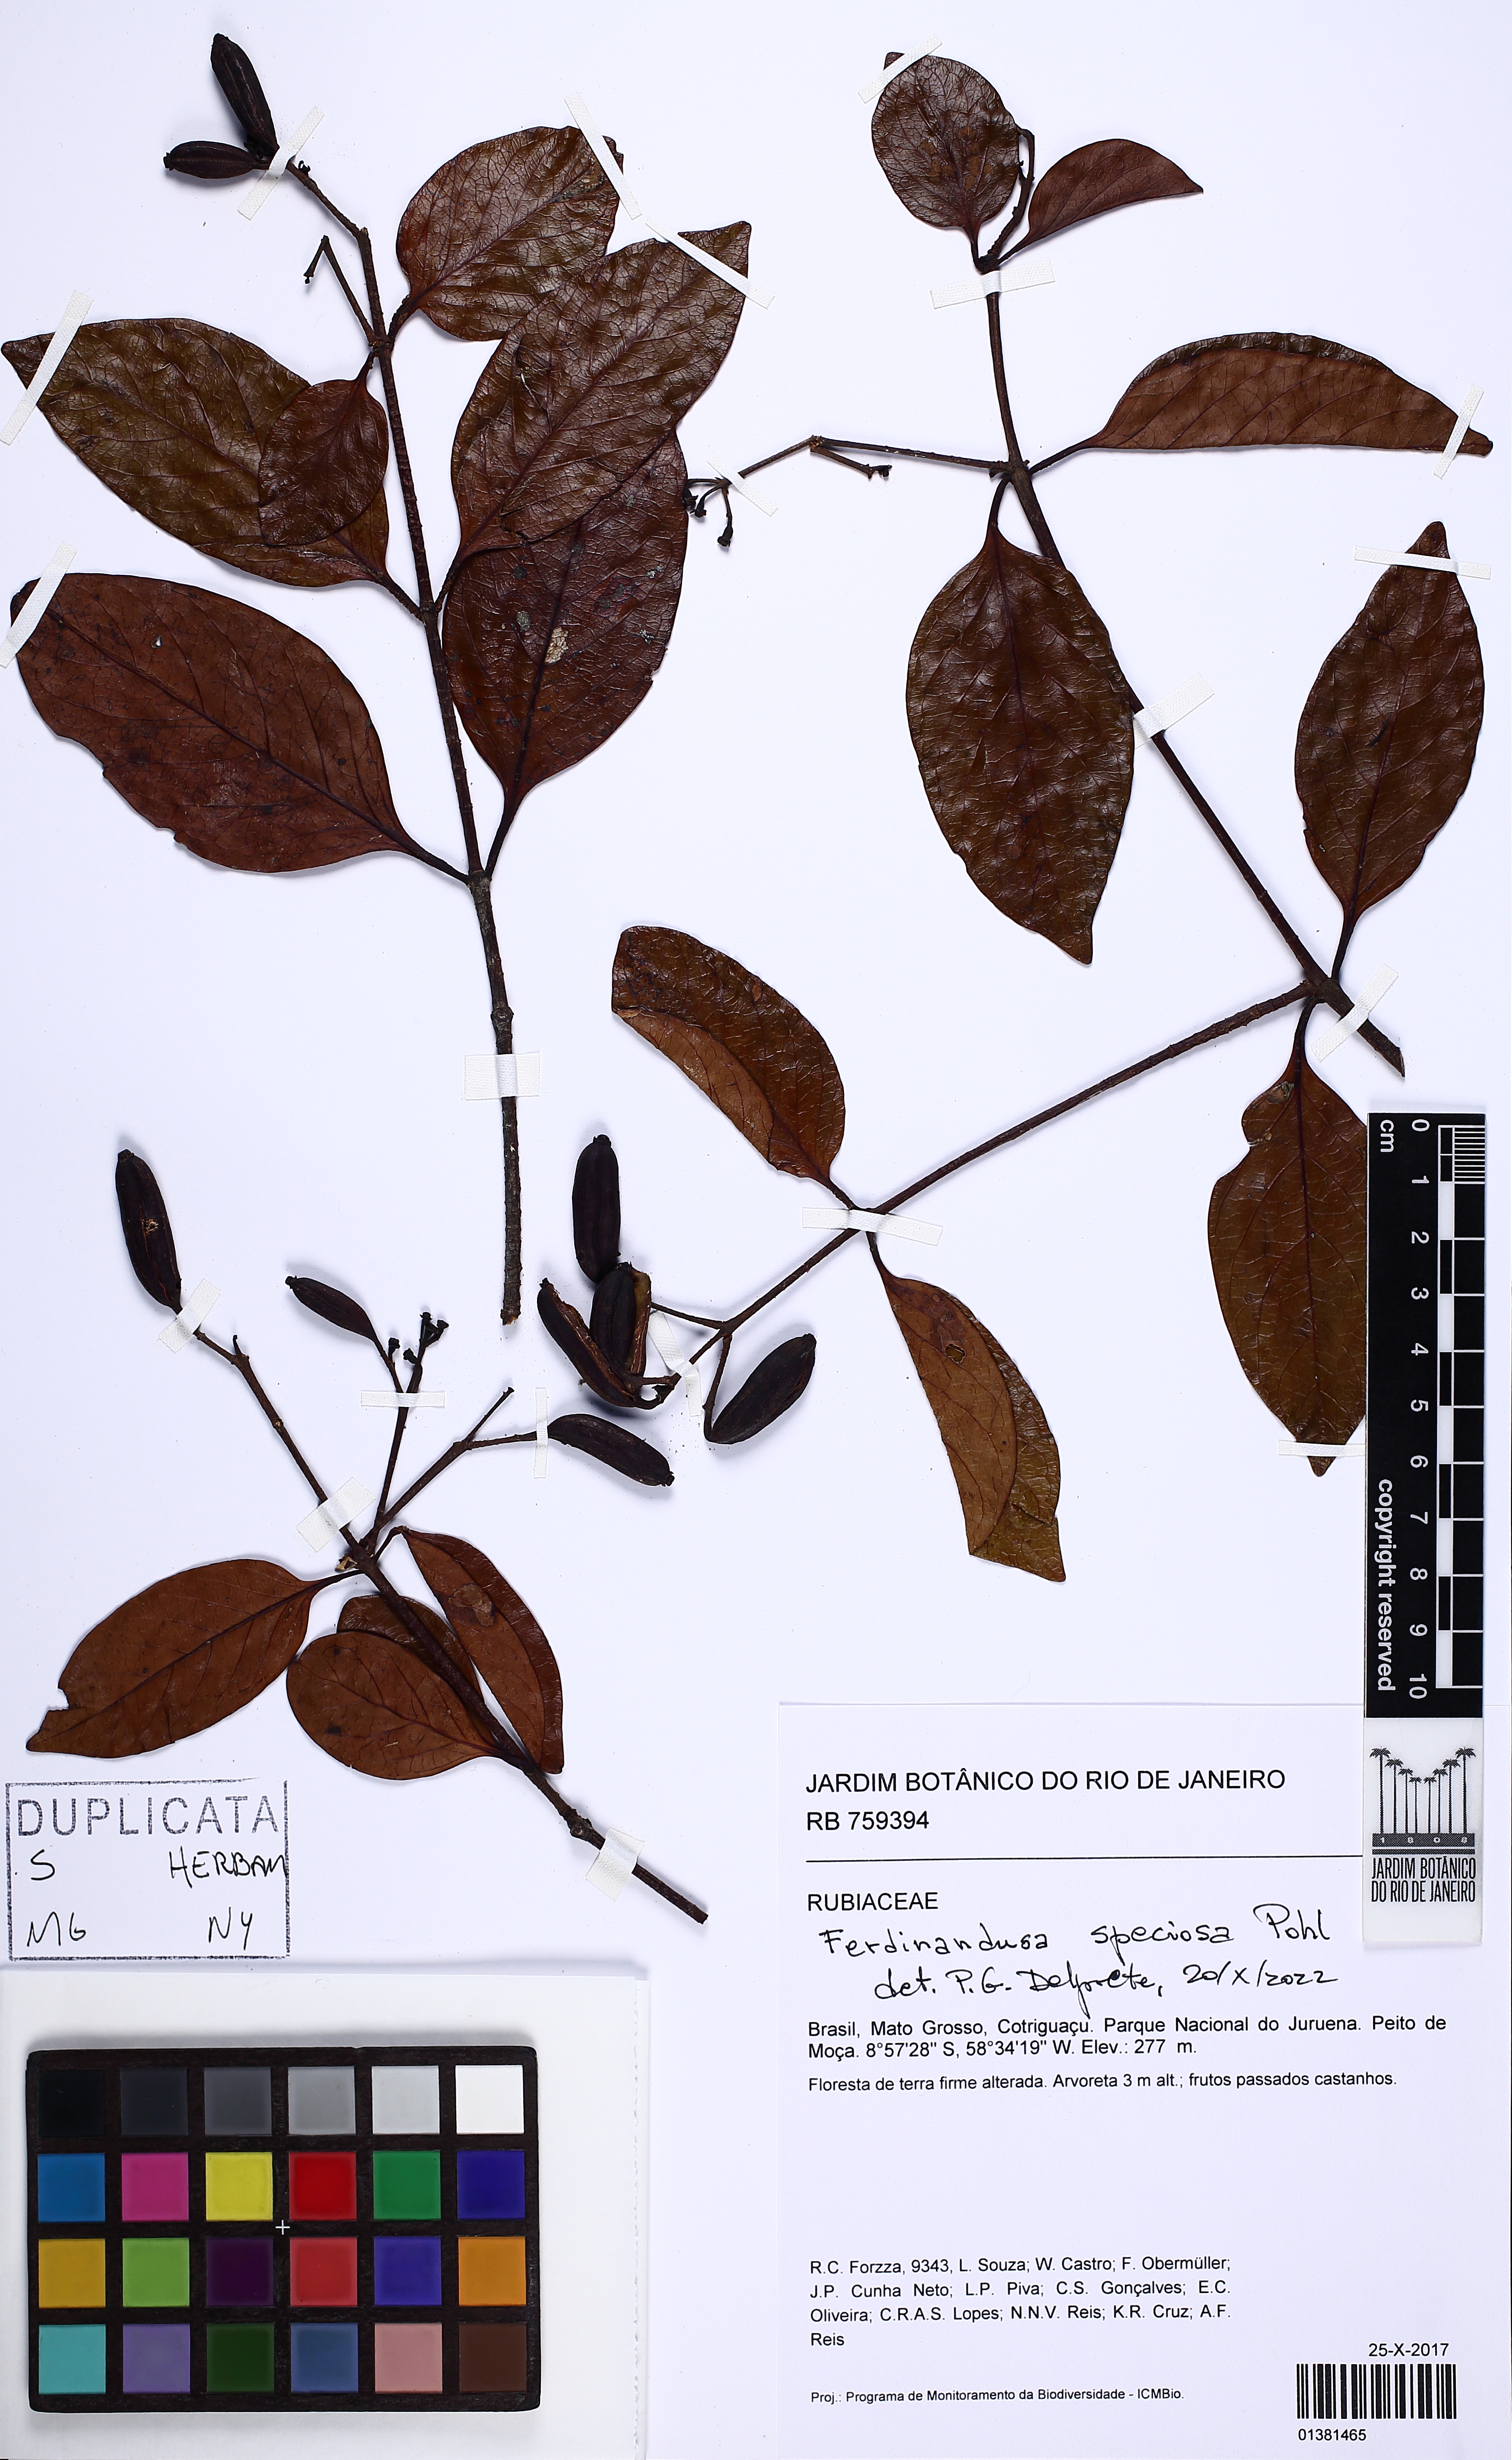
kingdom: Plantae
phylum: Tracheophyta
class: Magnoliopsida
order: Gentianales
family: Rubiaceae
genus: Ferdinandusa
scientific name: Ferdinandusa speciosa
